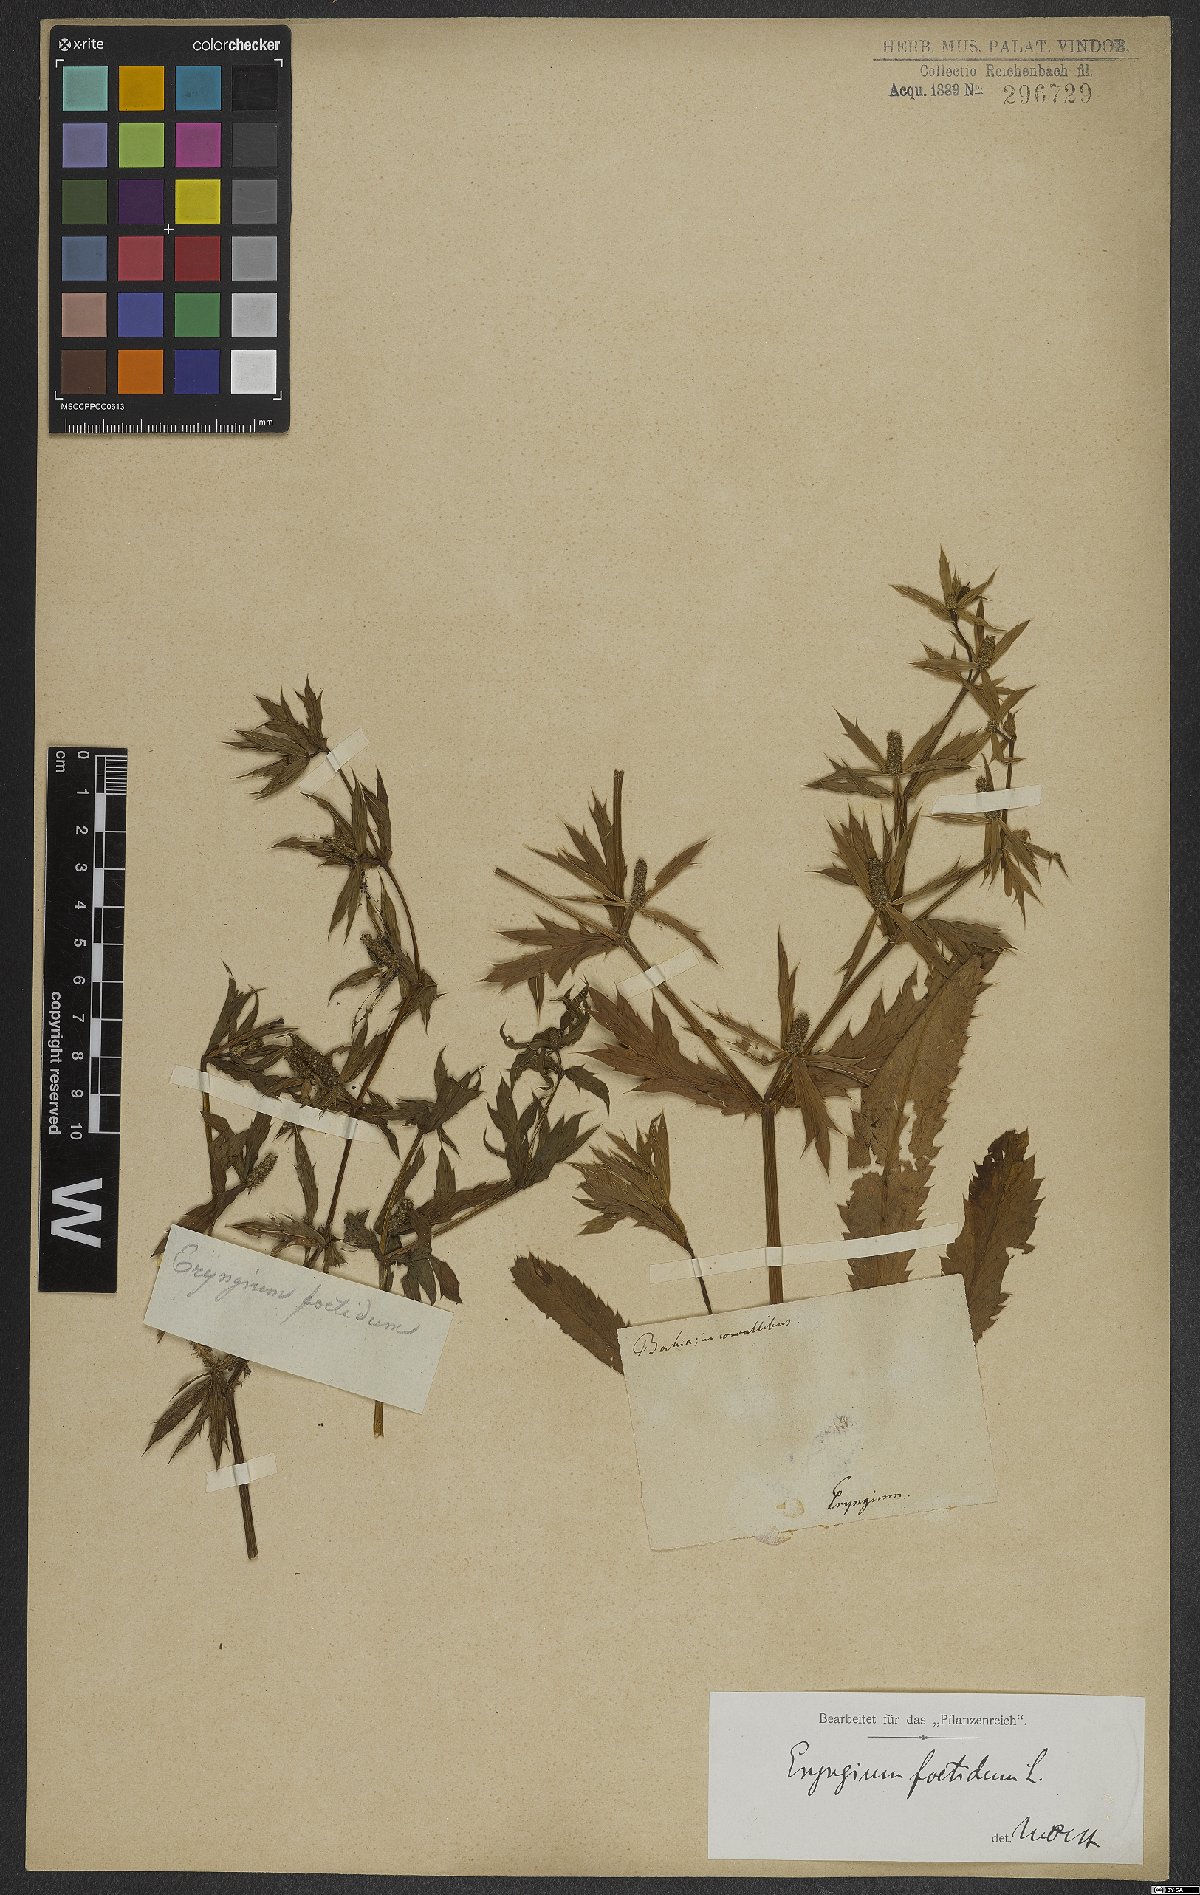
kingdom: Plantae
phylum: Tracheophyta
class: Magnoliopsida
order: Apiales
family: Apiaceae
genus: Eryngium
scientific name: Eryngium foetidum
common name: Fitweed
